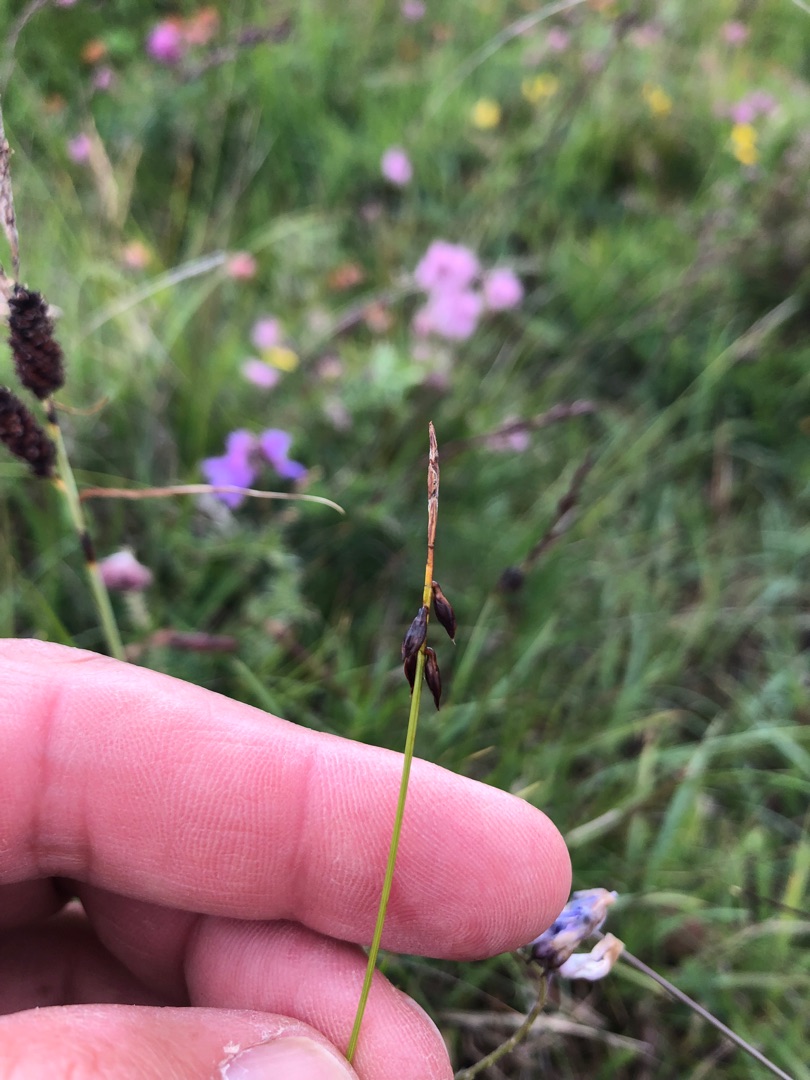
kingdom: Plantae
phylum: Tracheophyta
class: Liliopsida
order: Poales
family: Cyperaceae
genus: Carex
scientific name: Carex pulicaris
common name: Loppe-star
